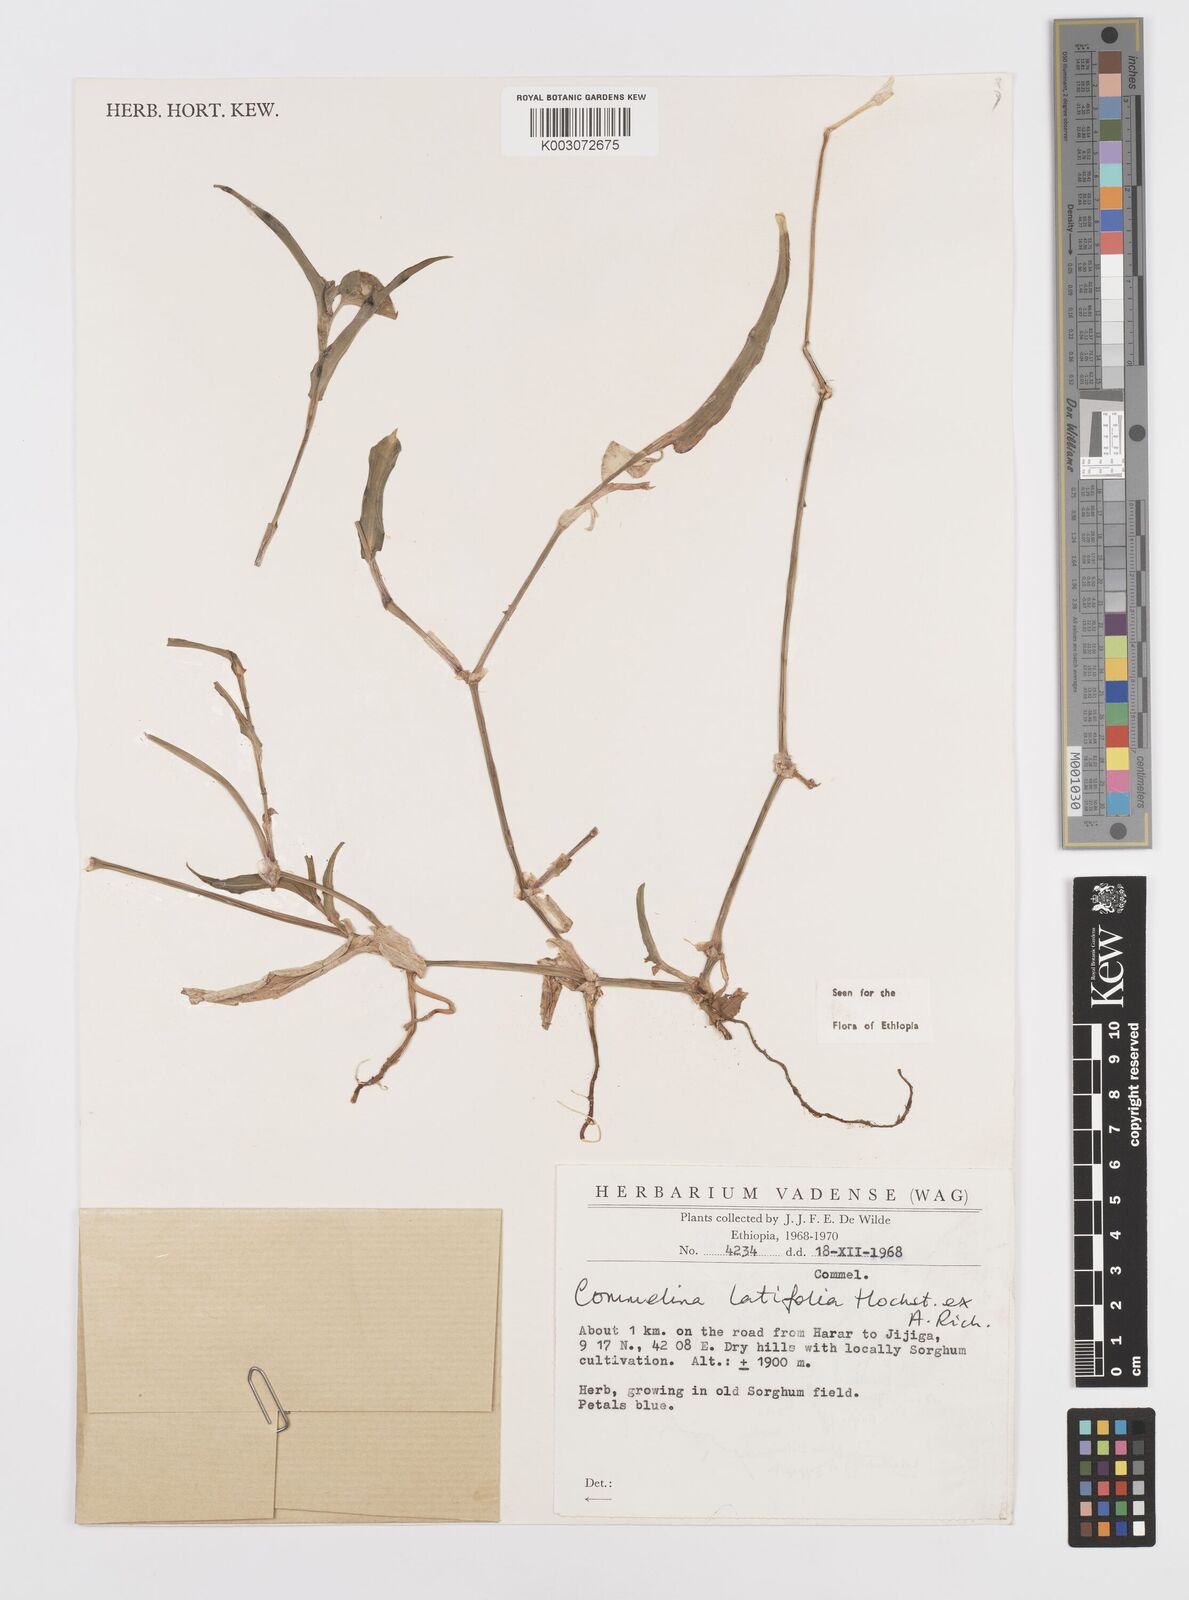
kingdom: Plantae
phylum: Tracheophyta
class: Liliopsida
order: Commelinales
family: Commelinaceae
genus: Commelina
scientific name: Commelina imberbis
